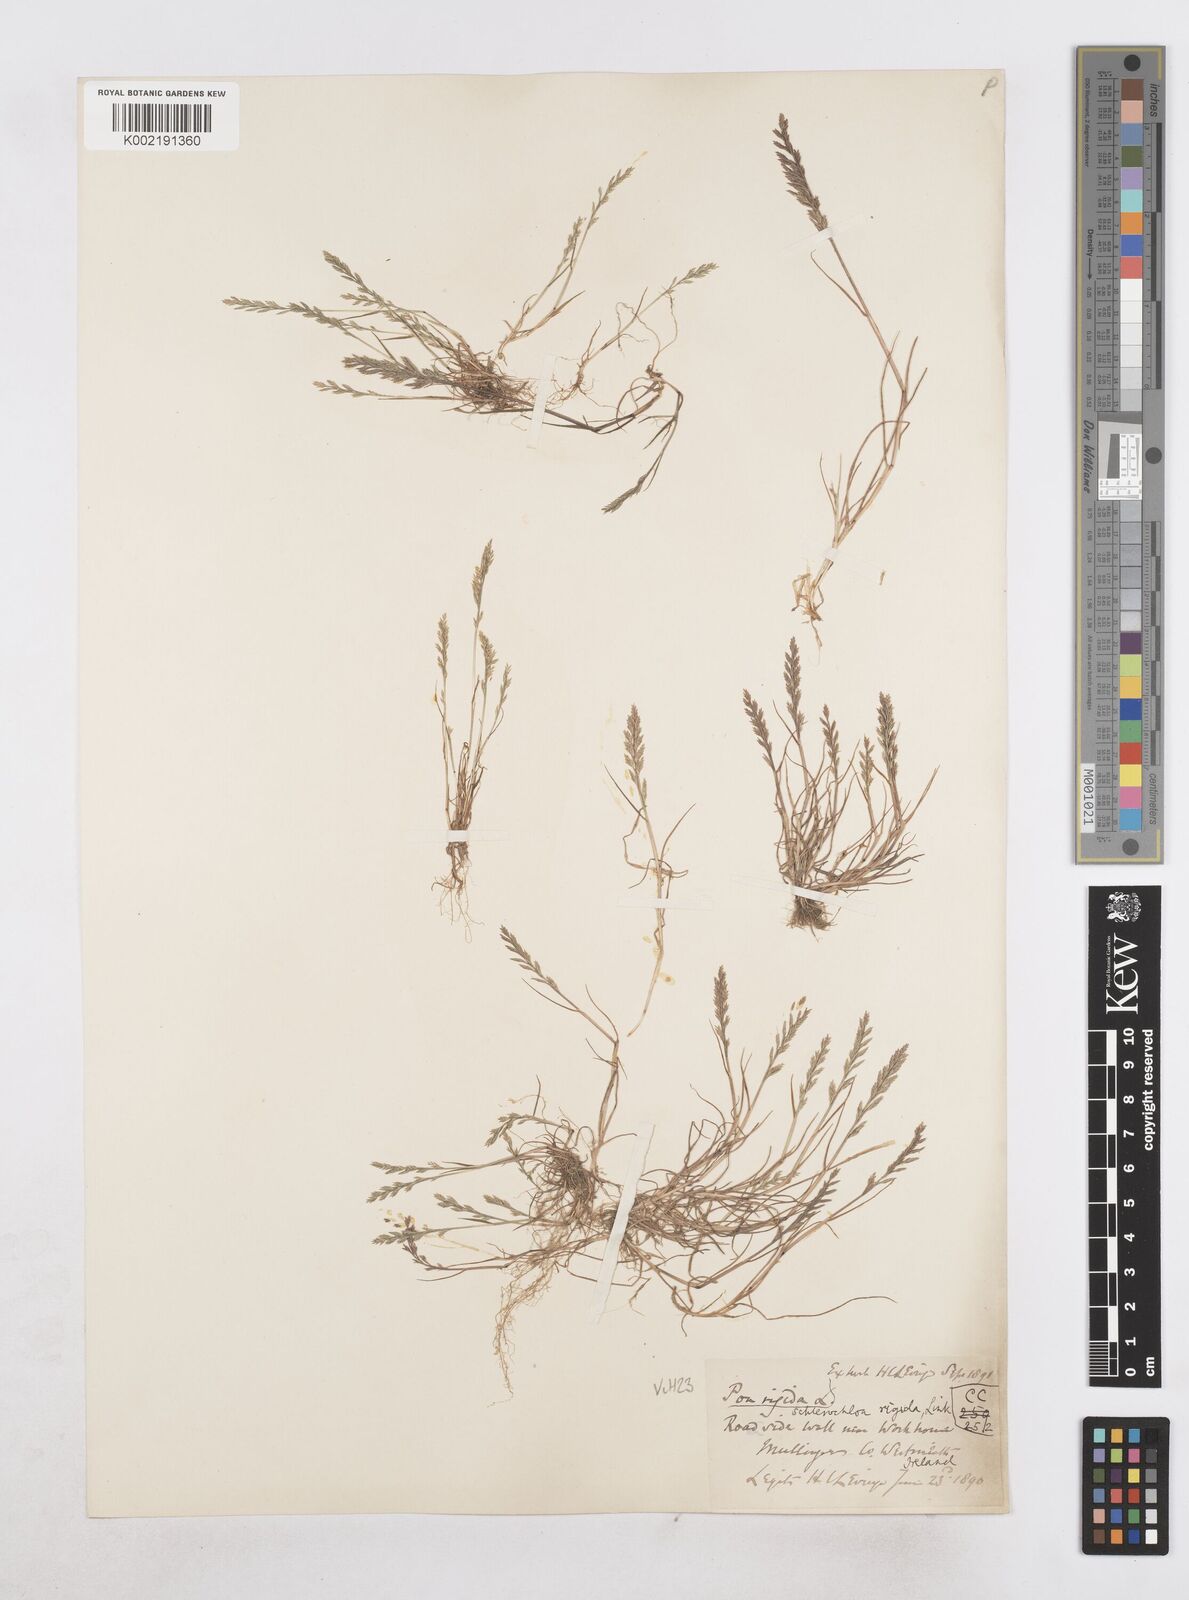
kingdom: Plantae
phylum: Tracheophyta
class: Liliopsida
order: Poales
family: Poaceae
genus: Catapodium
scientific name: Catapodium rigidum
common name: Fern-grass
